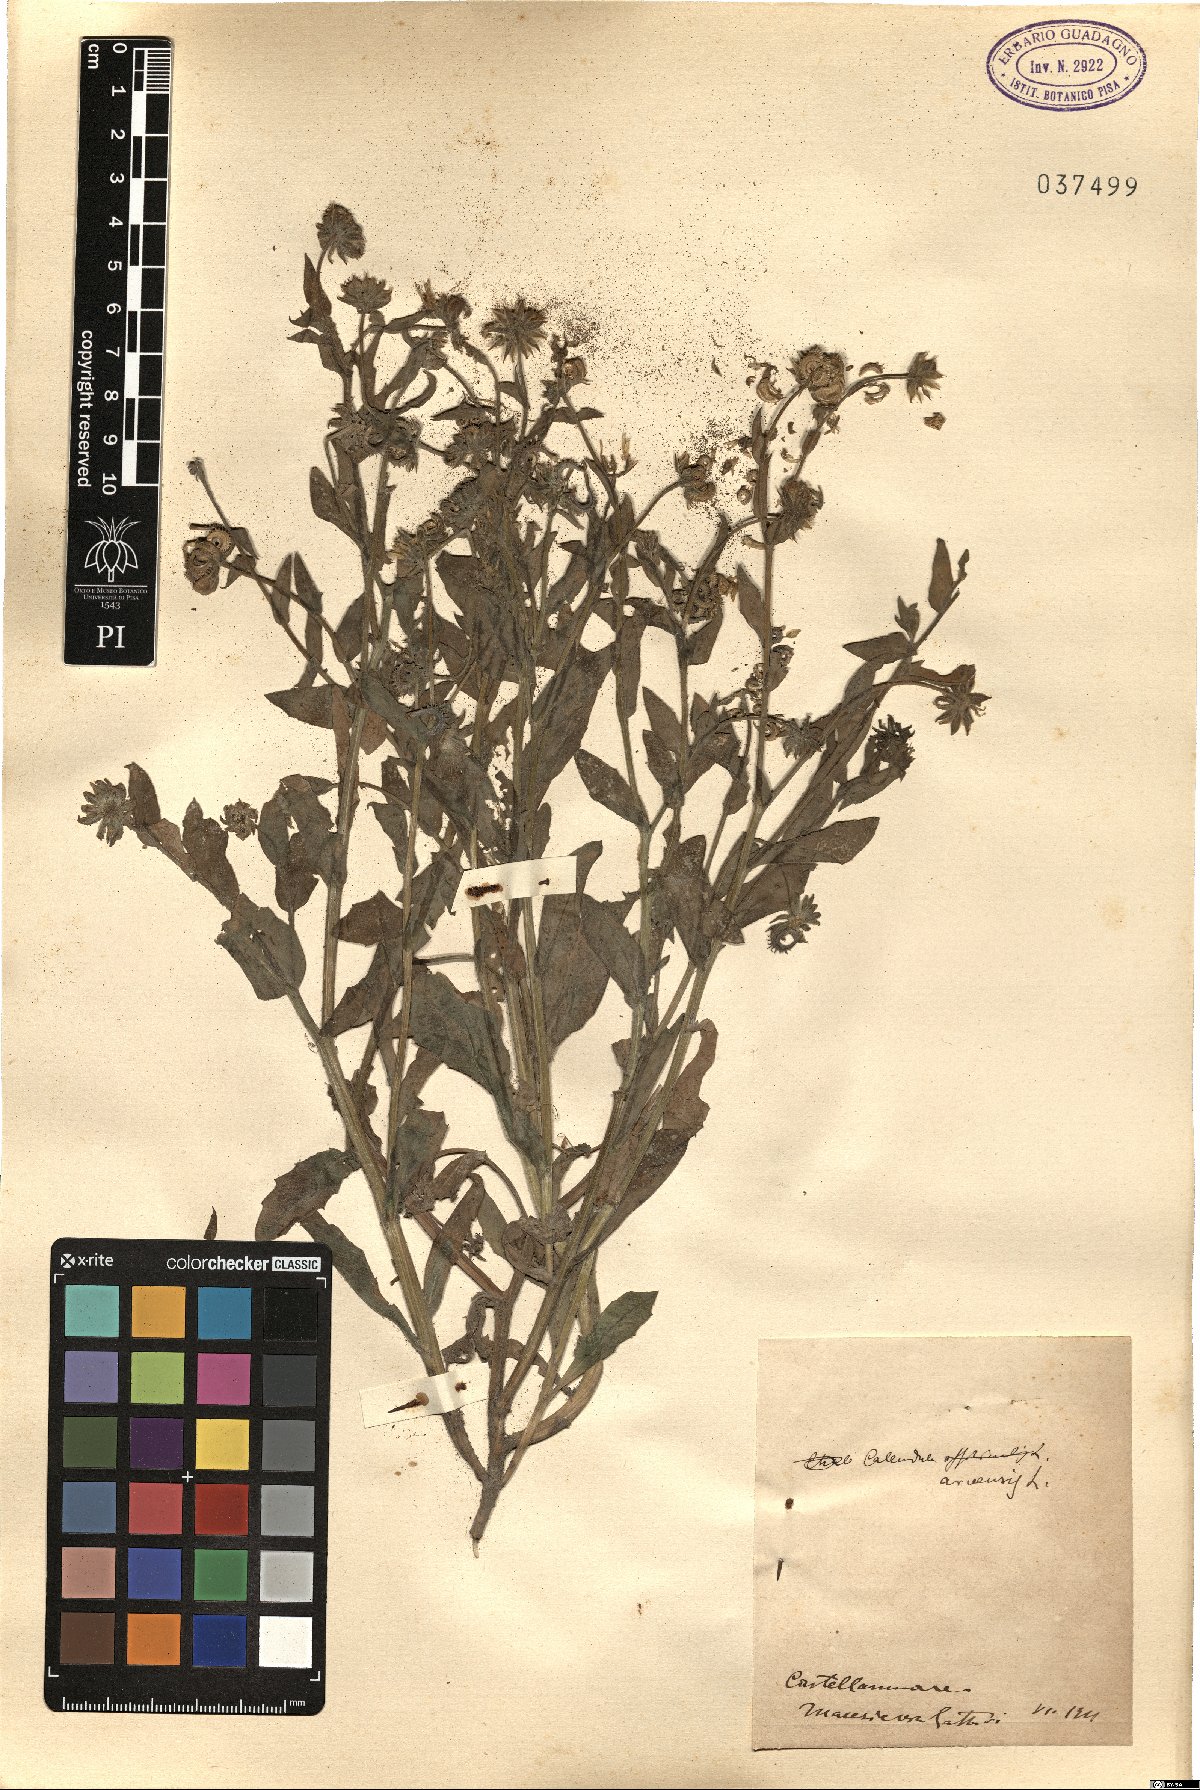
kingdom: Plantae
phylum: Tracheophyta
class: Magnoliopsida
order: Asterales
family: Asteraceae
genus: Calendula
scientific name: Calendula arvensis
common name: Field marigold
